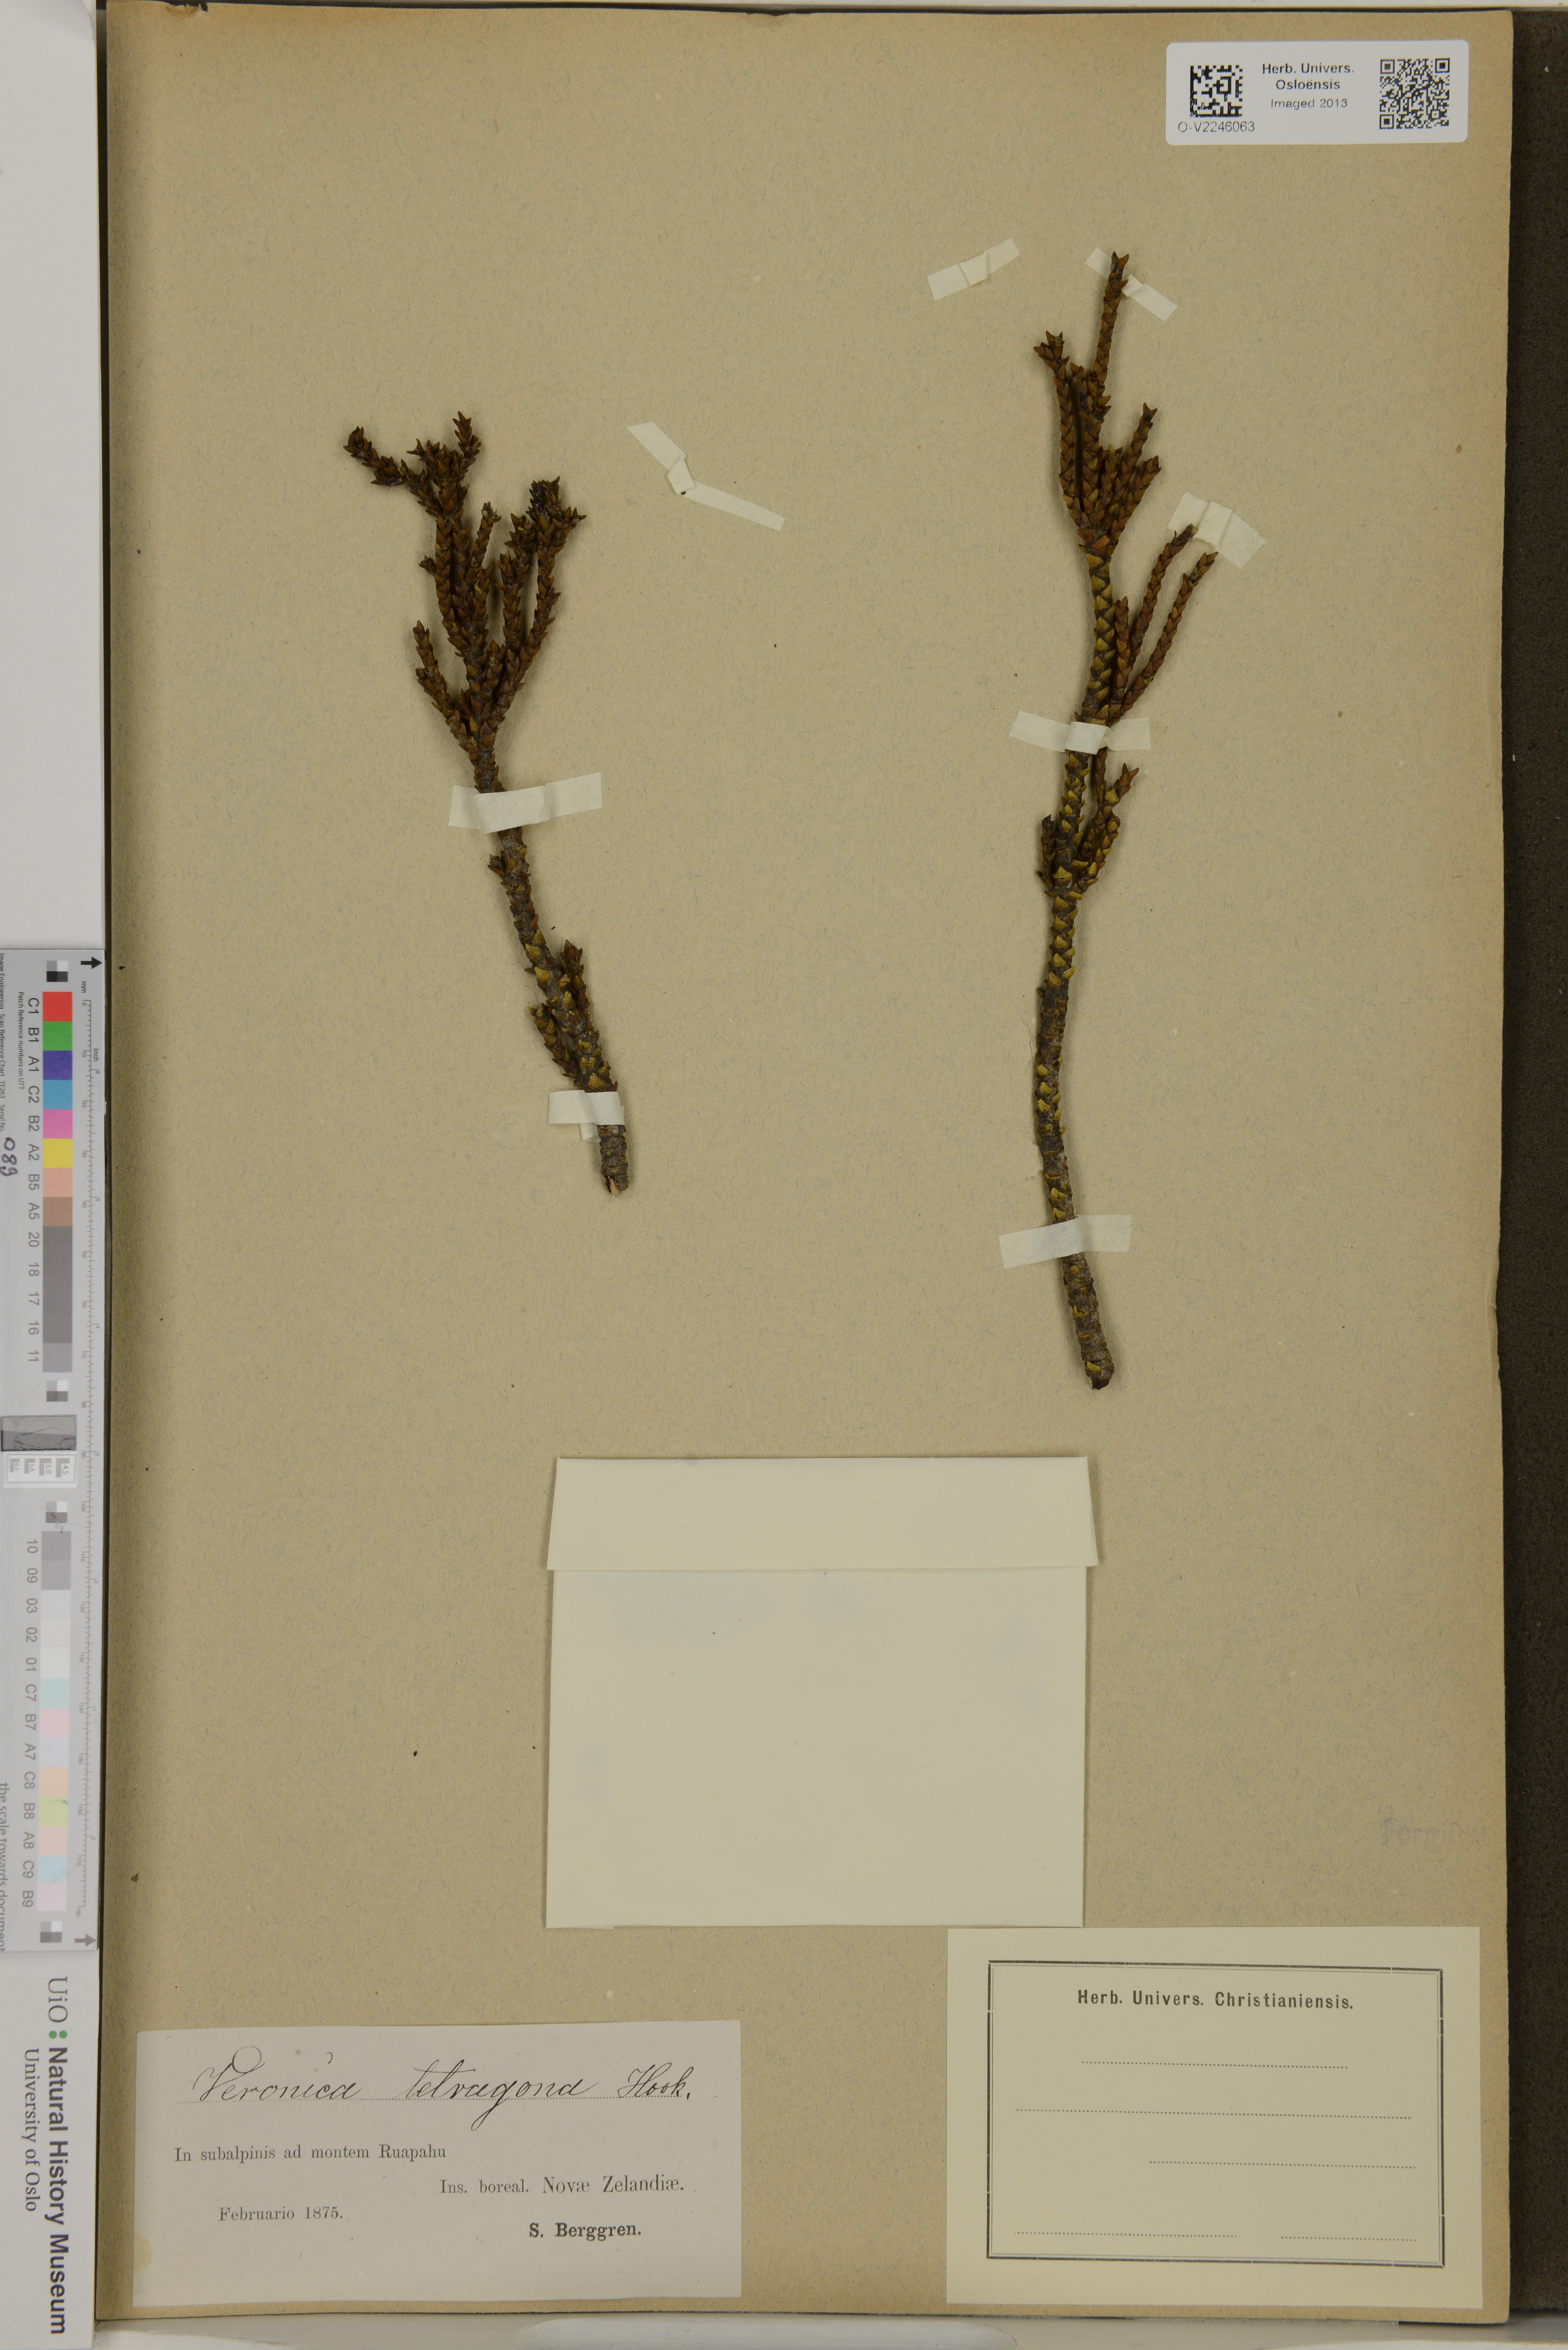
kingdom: Plantae
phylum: Tracheophyta
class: Magnoliopsida
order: Lamiales
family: Plantaginaceae
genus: Veronica
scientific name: Veronica tetragona
